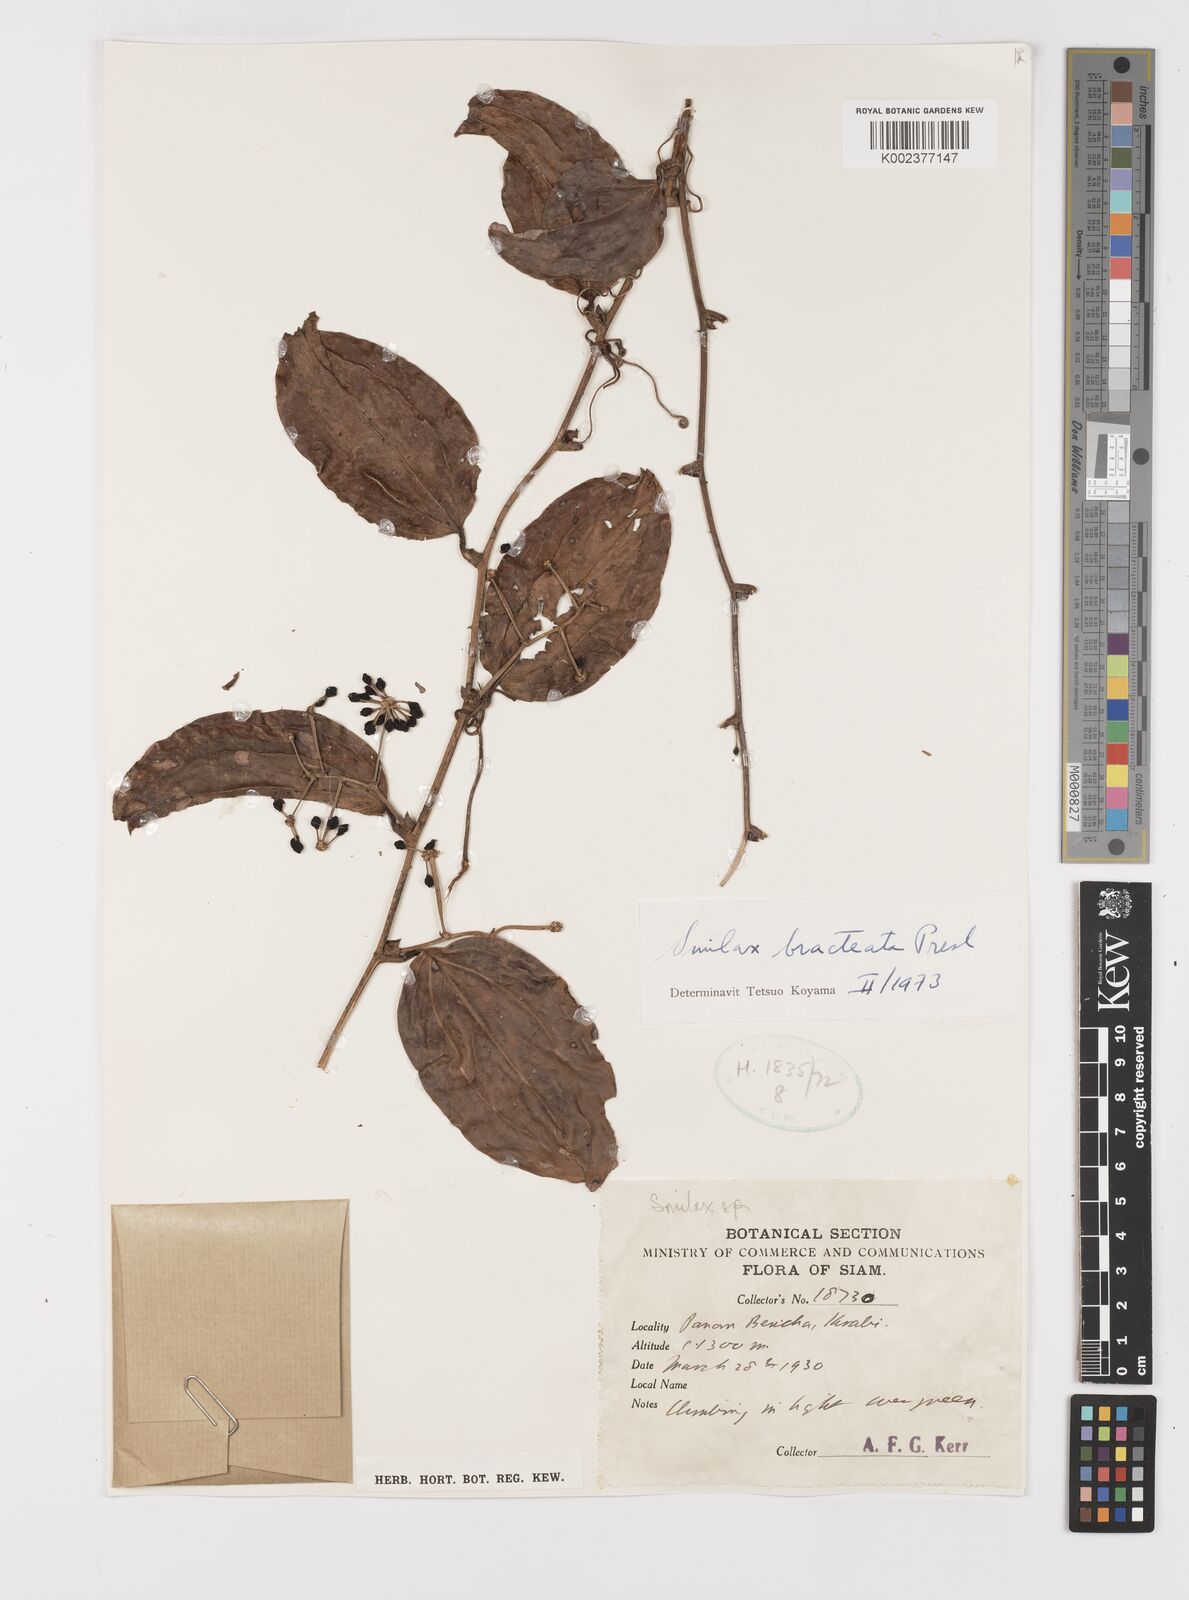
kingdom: Plantae
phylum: Tracheophyta
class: Liliopsida
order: Liliales
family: Smilacaceae
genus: Smilax
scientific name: Smilax bracteata
